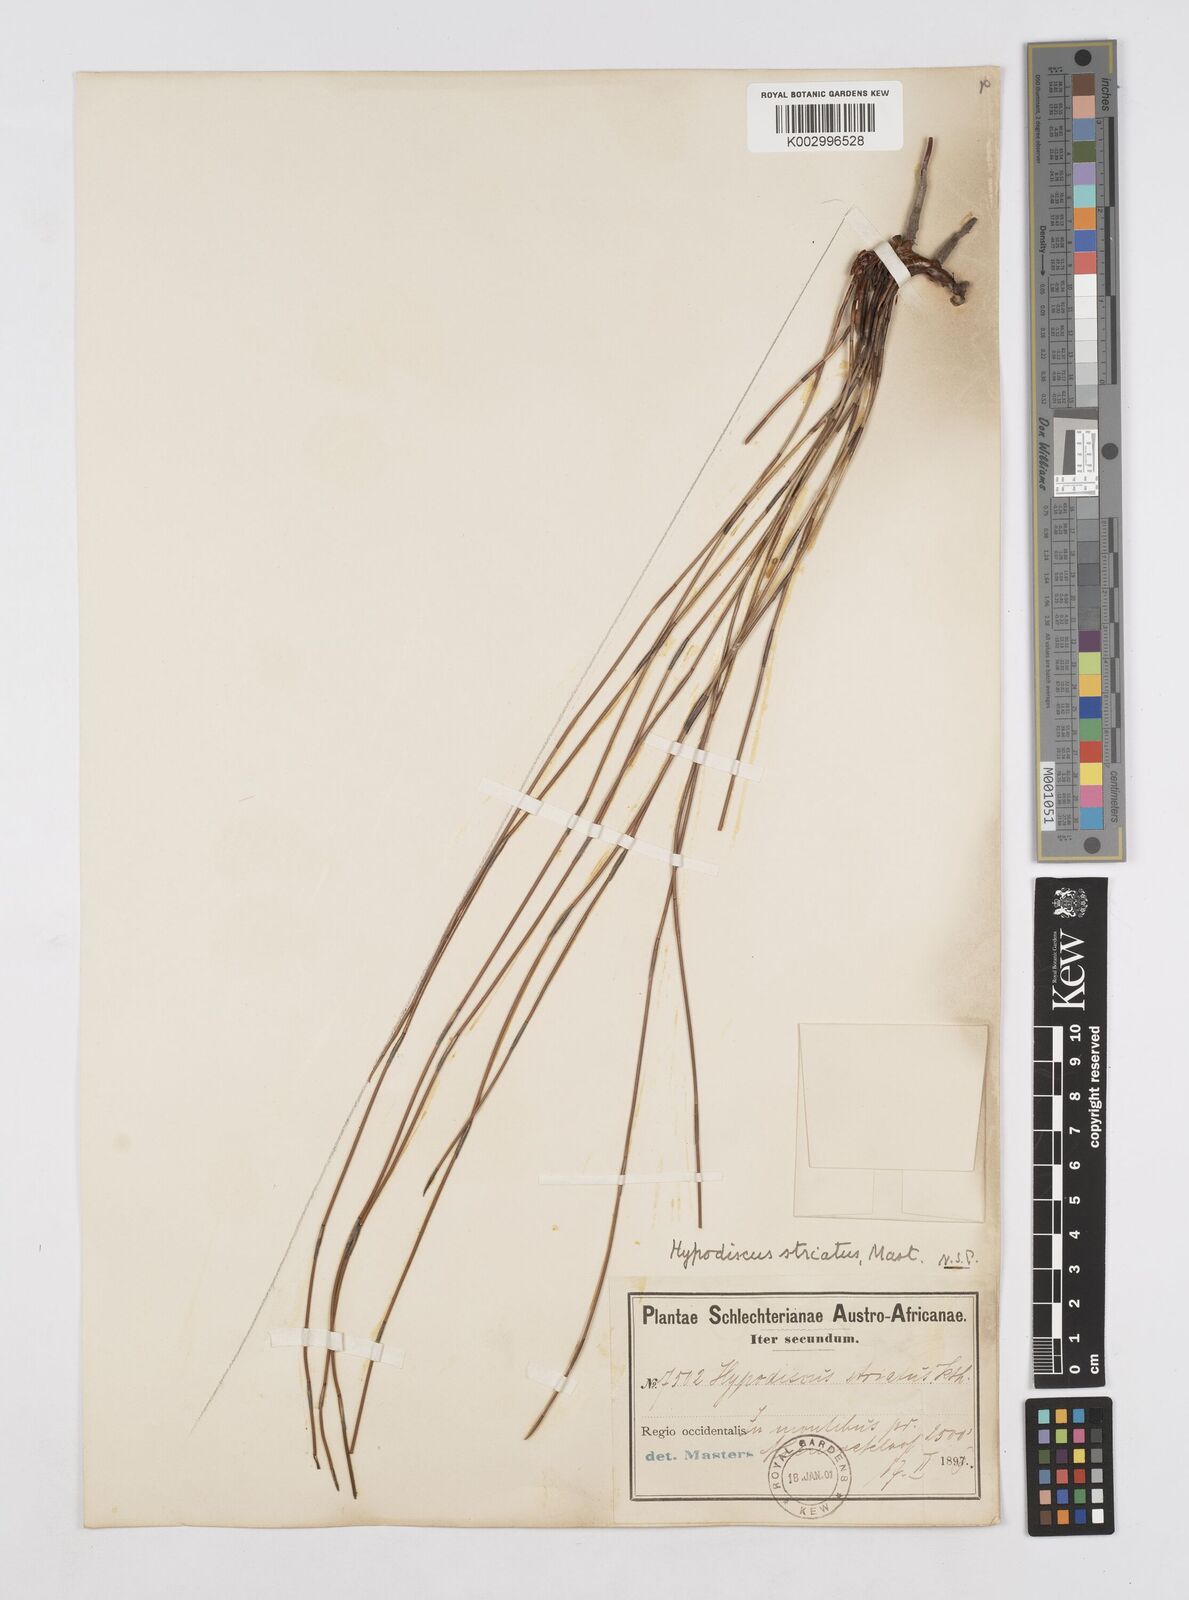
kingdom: Plantae
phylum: Tracheophyta
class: Liliopsida
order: Poales
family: Restionaceae
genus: Hypodiscus
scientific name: Hypodiscus striatus
